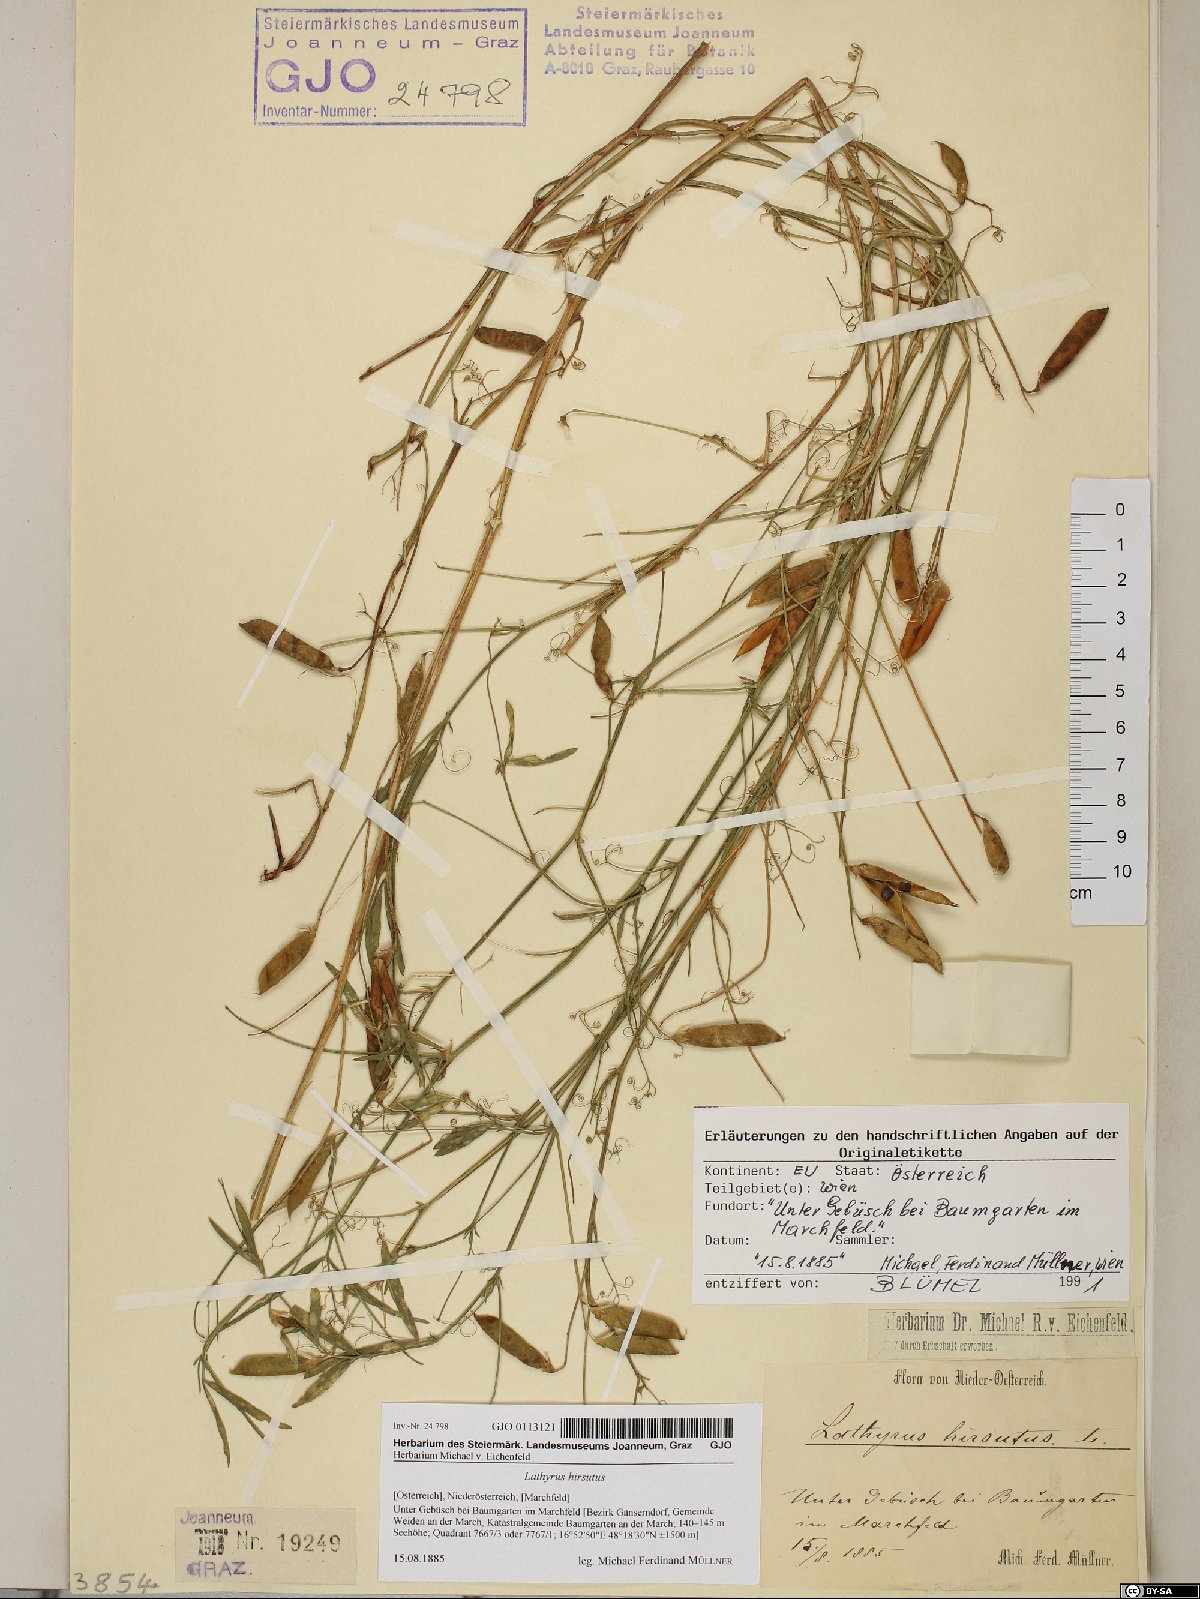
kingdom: Plantae
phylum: Tracheophyta
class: Magnoliopsida
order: Fabales
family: Fabaceae
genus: Lathyrus
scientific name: Lathyrus hirsutus
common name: Hairy vetchling
